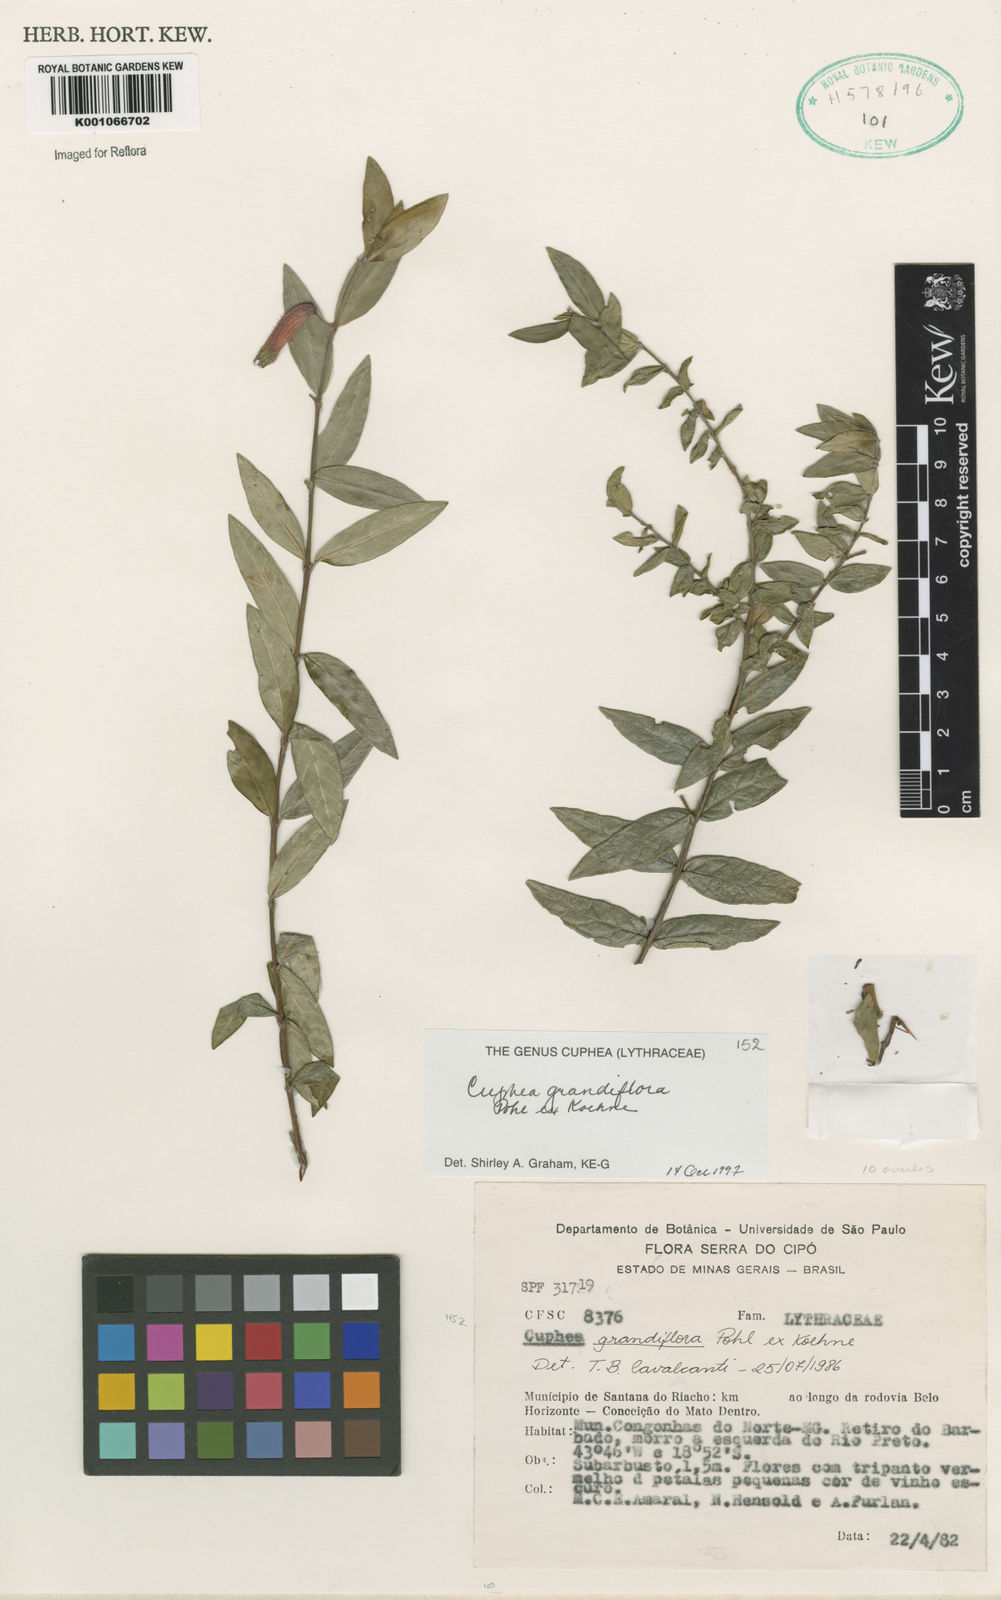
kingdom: Plantae
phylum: Tracheophyta
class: Magnoliopsida
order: Myrtales
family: Lythraceae
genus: Cuphea
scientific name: Cuphea grandiflora
